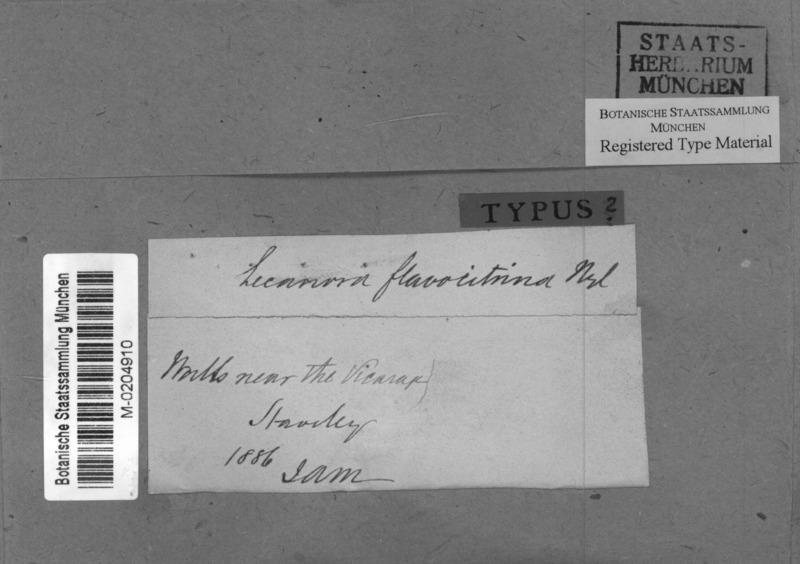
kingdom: Fungi
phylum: Ascomycota
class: Lecanoromycetes
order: Teloschistales
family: Teloschistaceae
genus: Flavoplaca
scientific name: Flavoplaca flavocitrina
